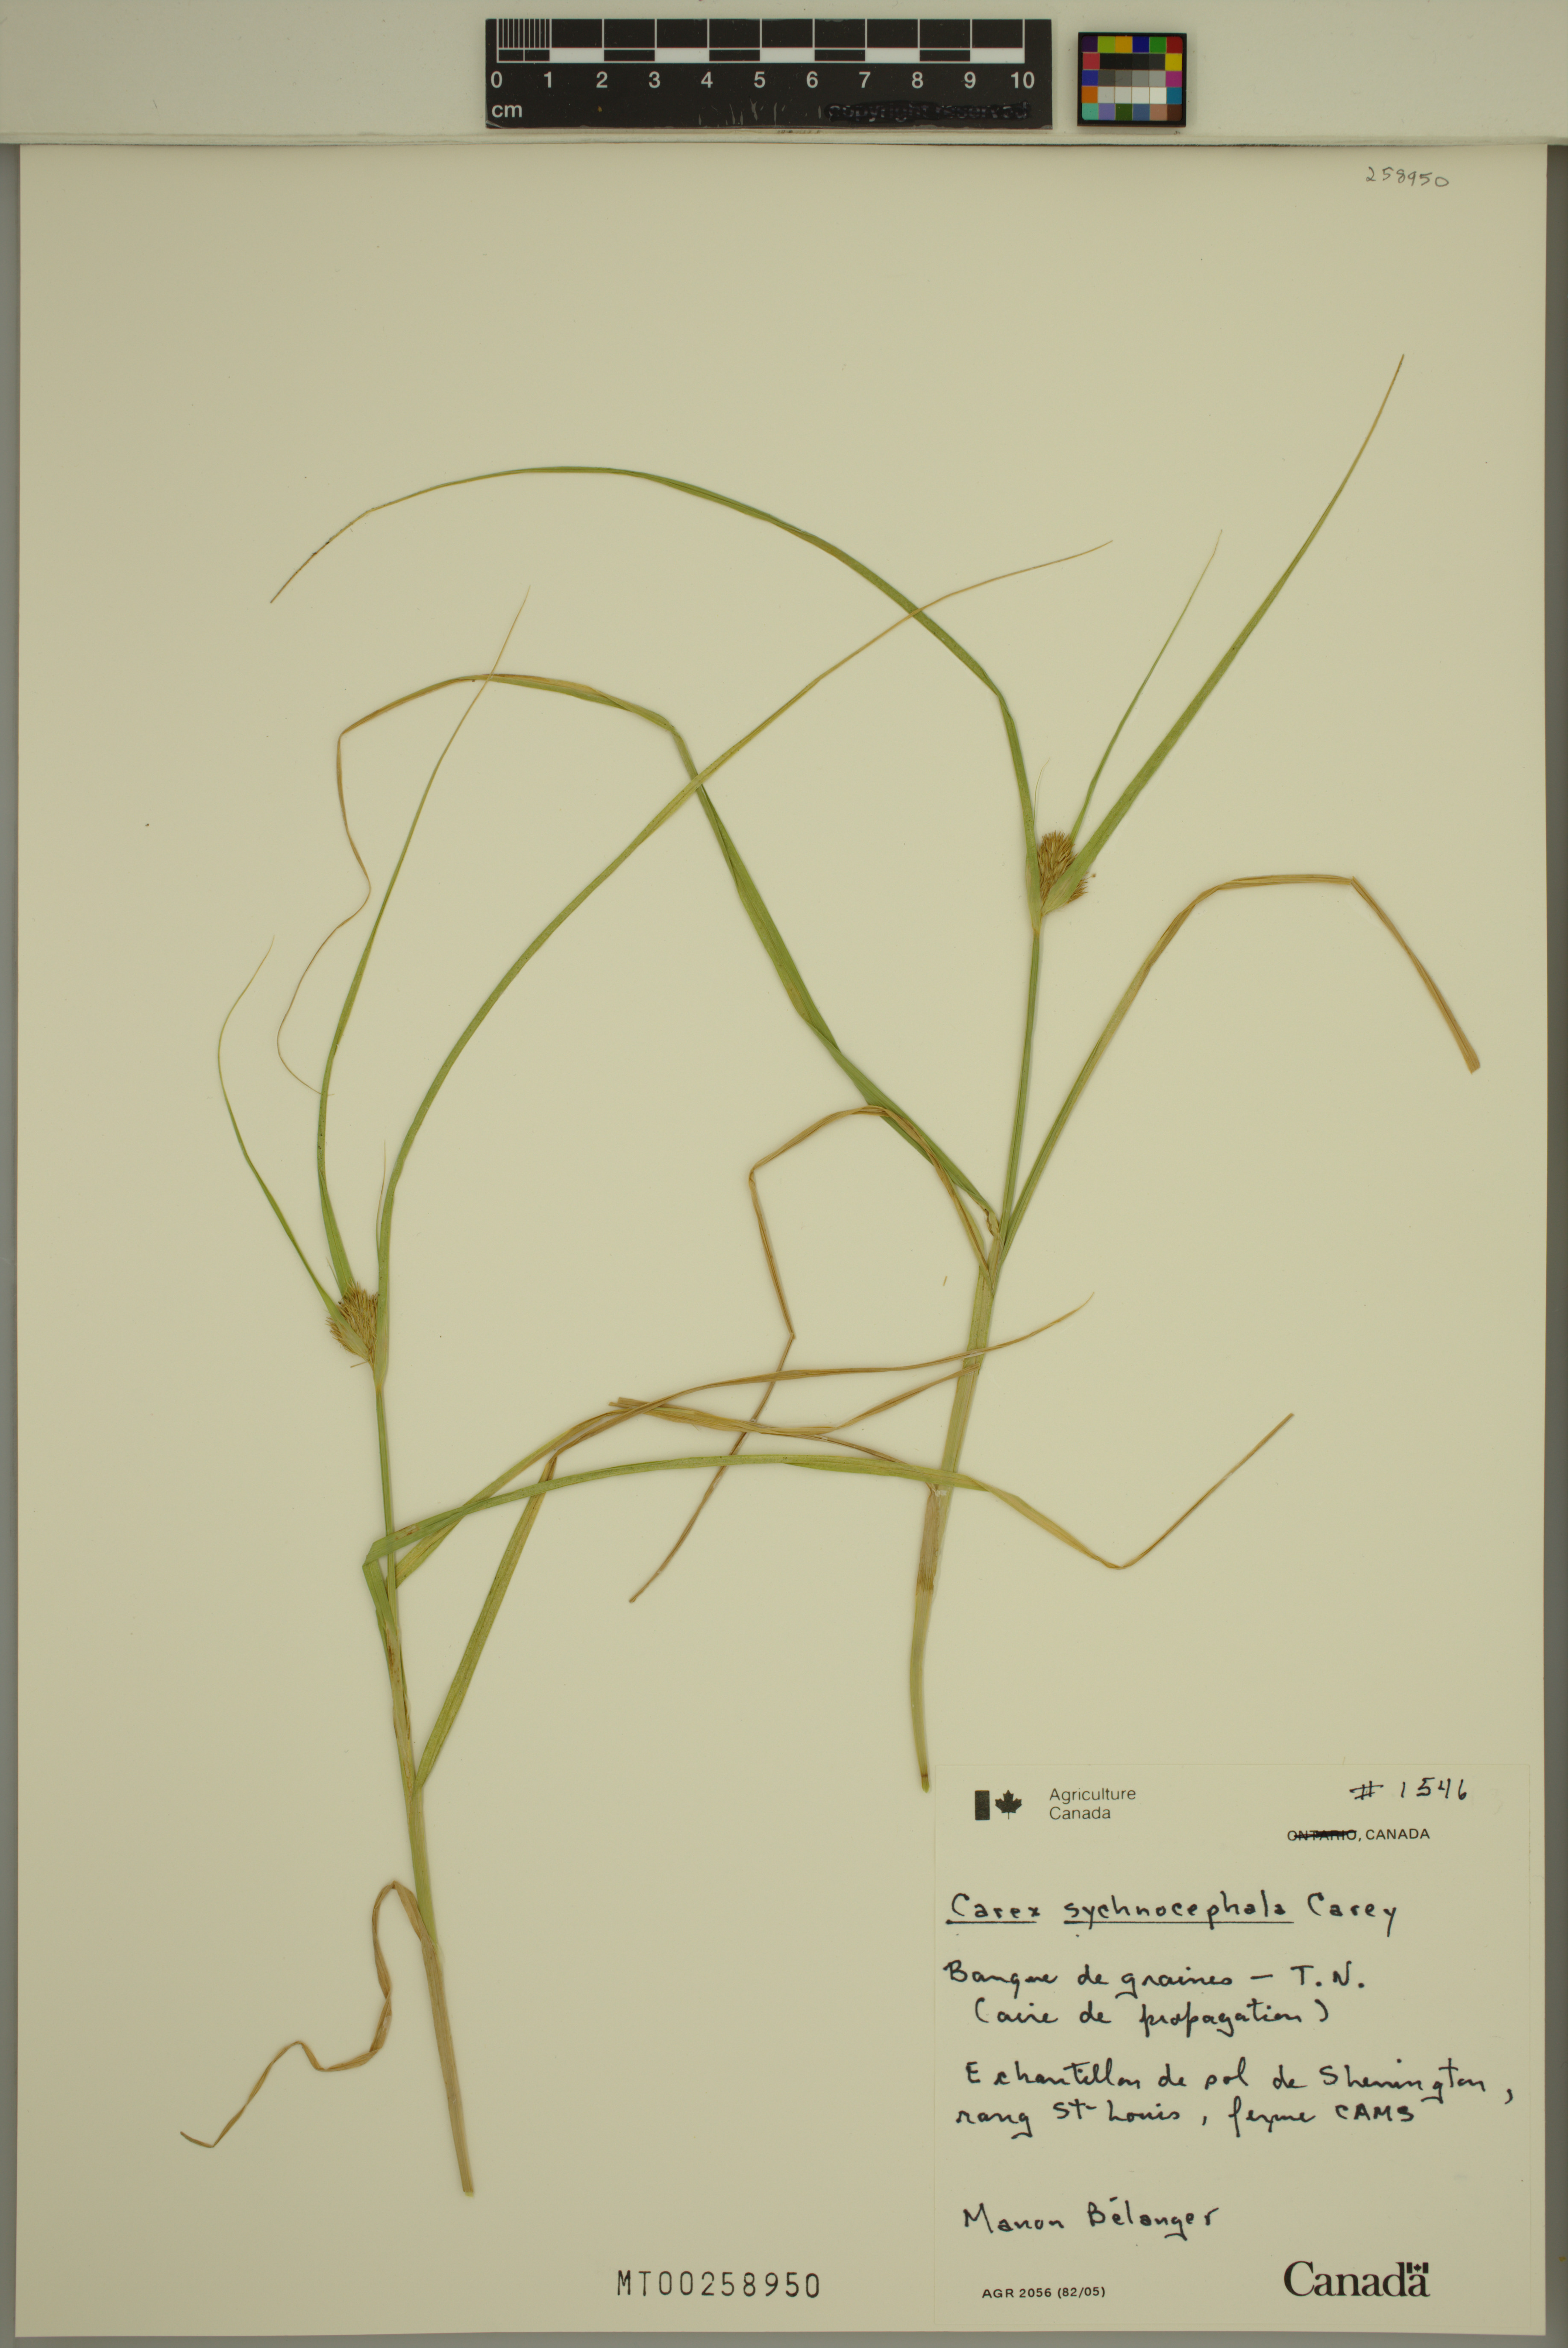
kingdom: Plantae
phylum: Tracheophyta
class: Liliopsida
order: Poales
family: Cyperaceae
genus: Carex
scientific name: Carex sychnocephala
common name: Dense long-beaked sedge
